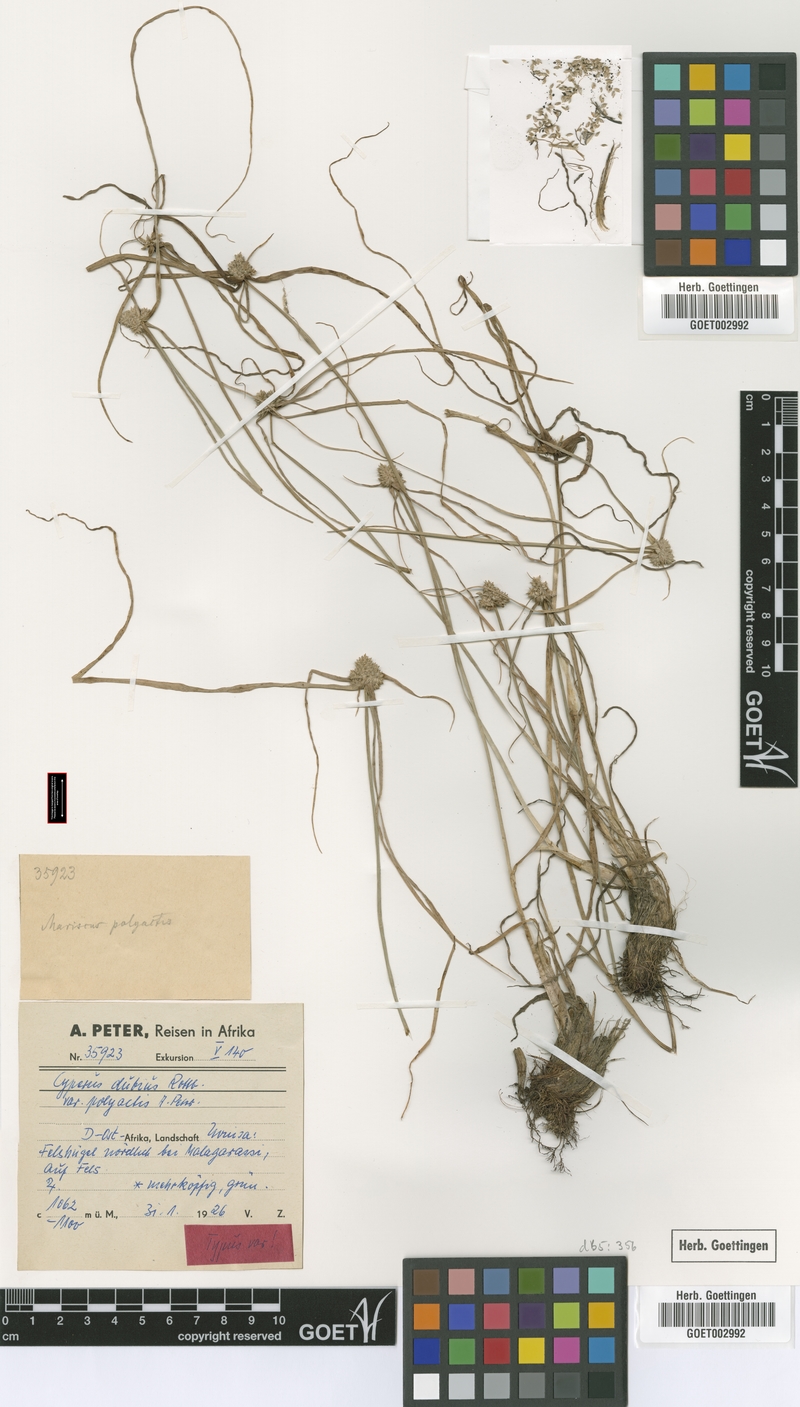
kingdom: Plantae
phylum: Tracheophyta
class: Liliopsida
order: Poales
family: Cyperaceae
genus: Cyperus
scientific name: Cyperus dubius
